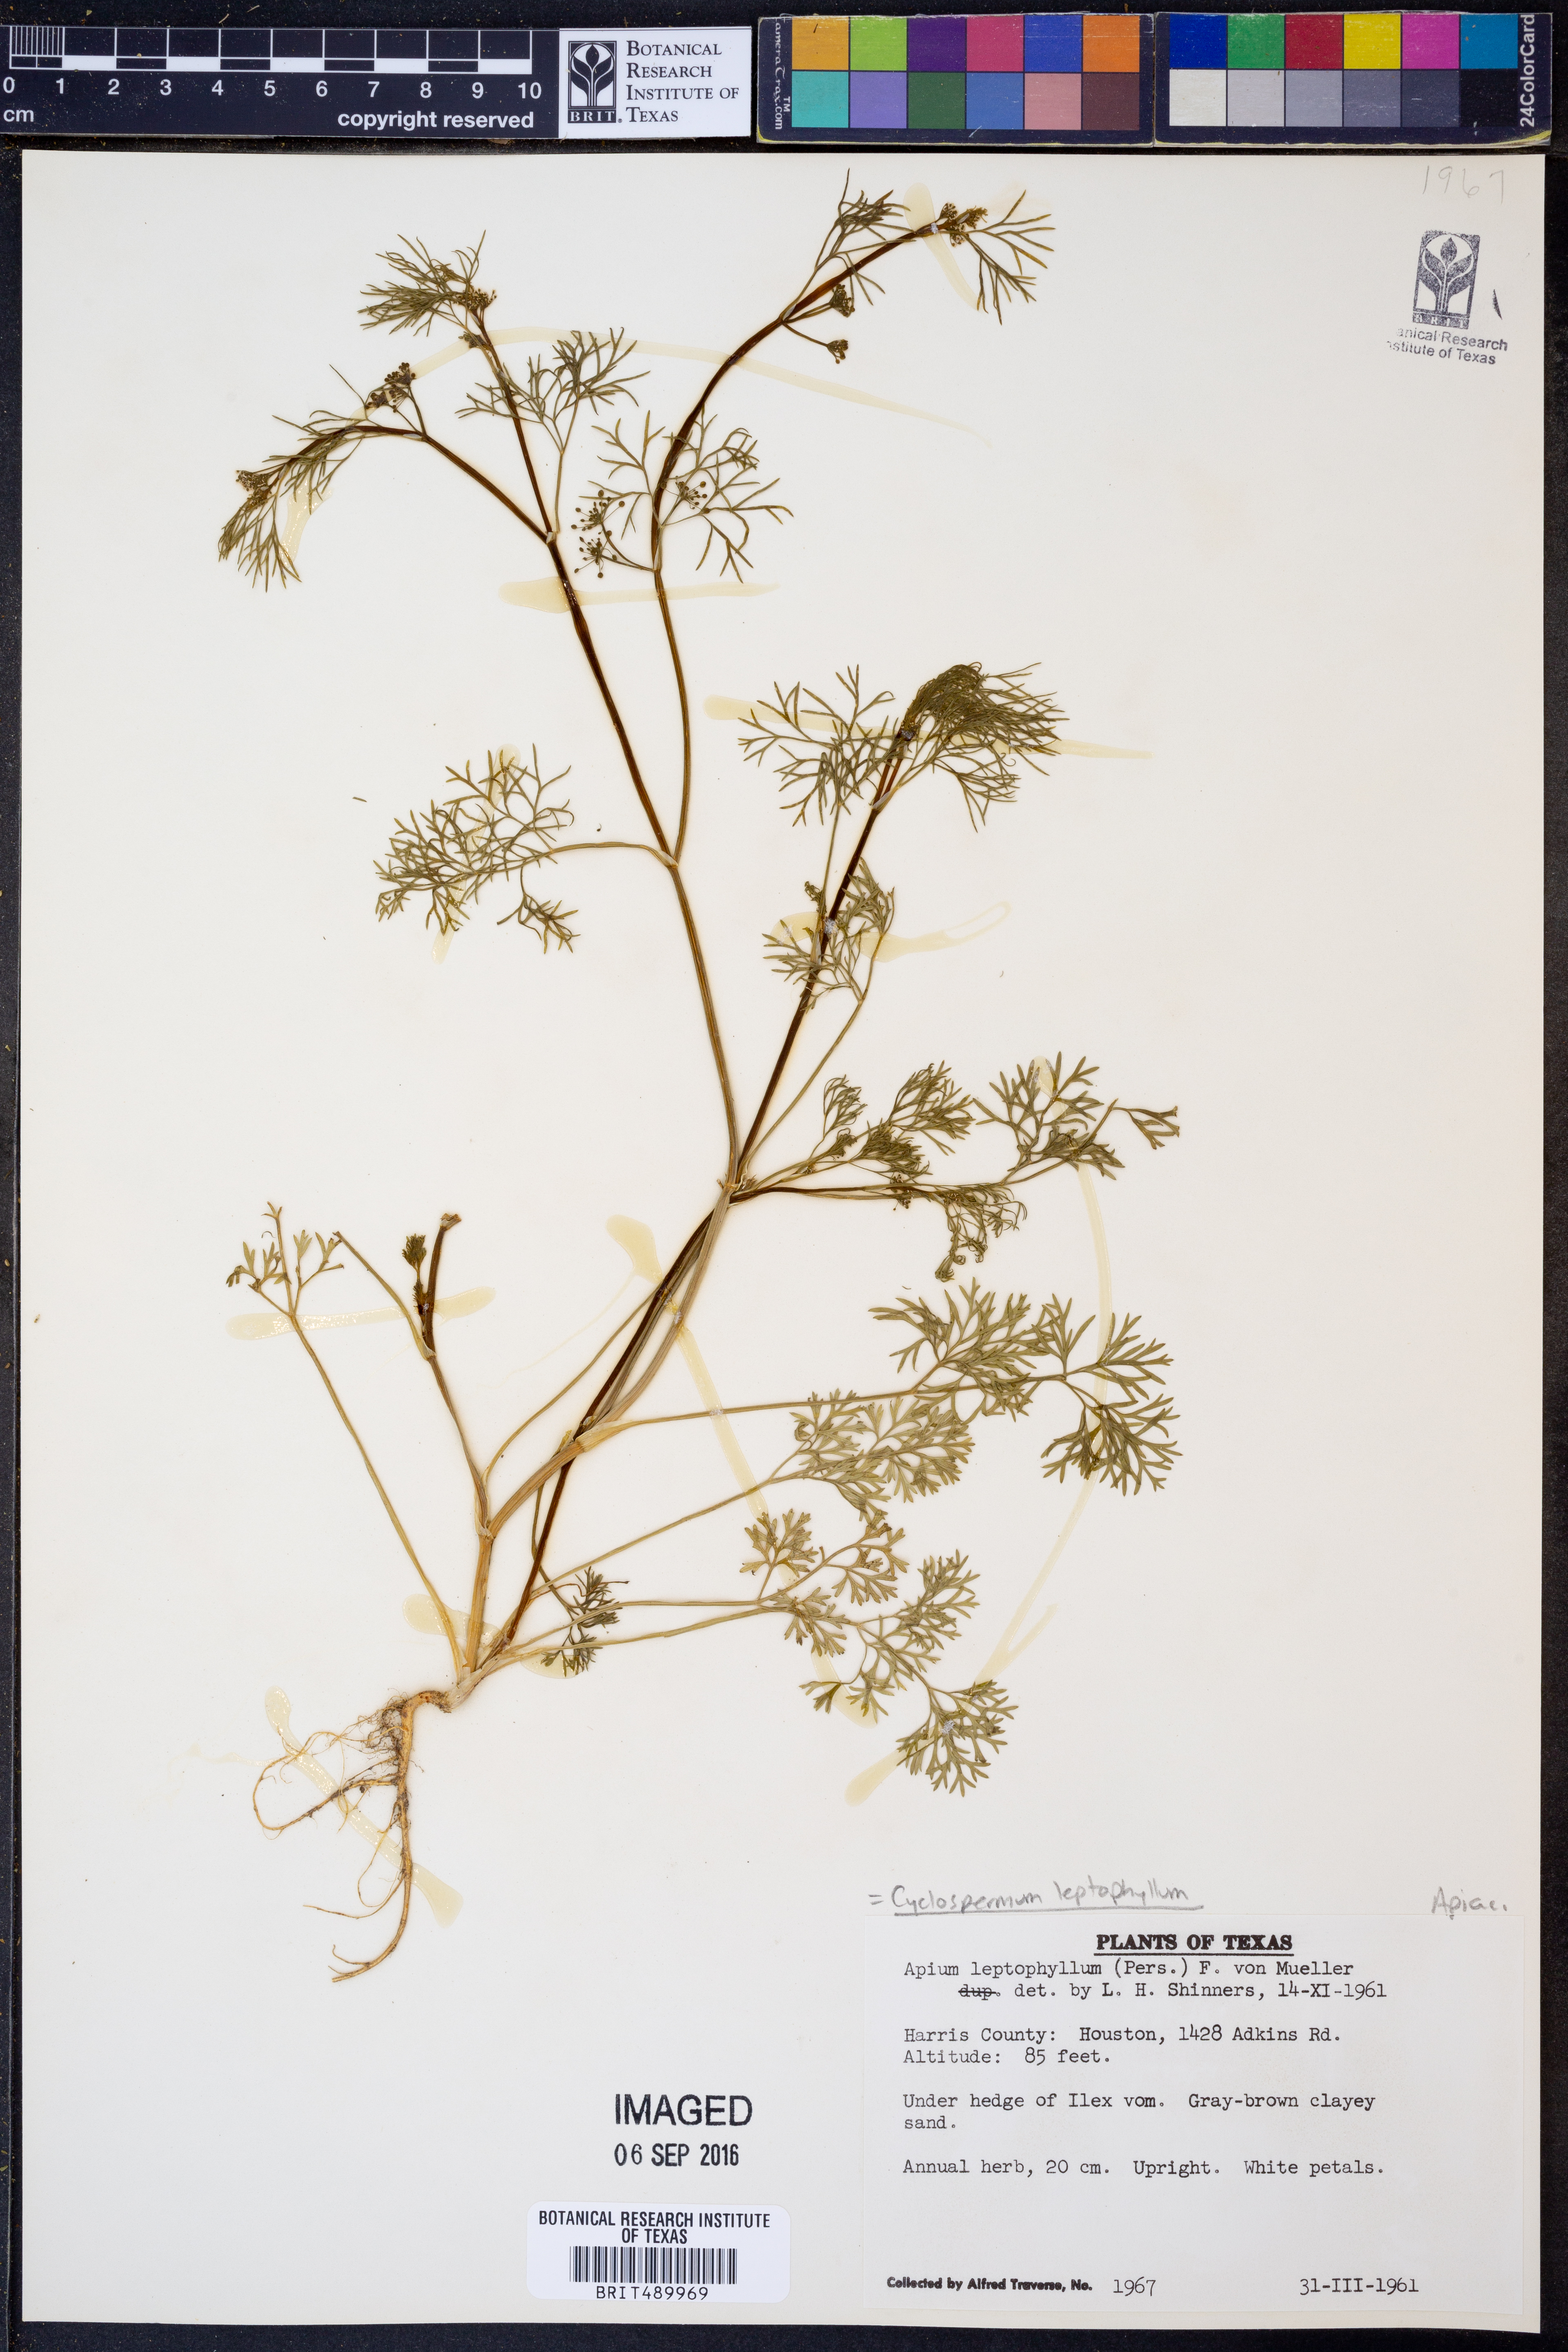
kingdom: Plantae
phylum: Tracheophyta
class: Magnoliopsida
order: Apiales
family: Apiaceae
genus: Cyclospermum
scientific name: Cyclospermum leptophyllum
